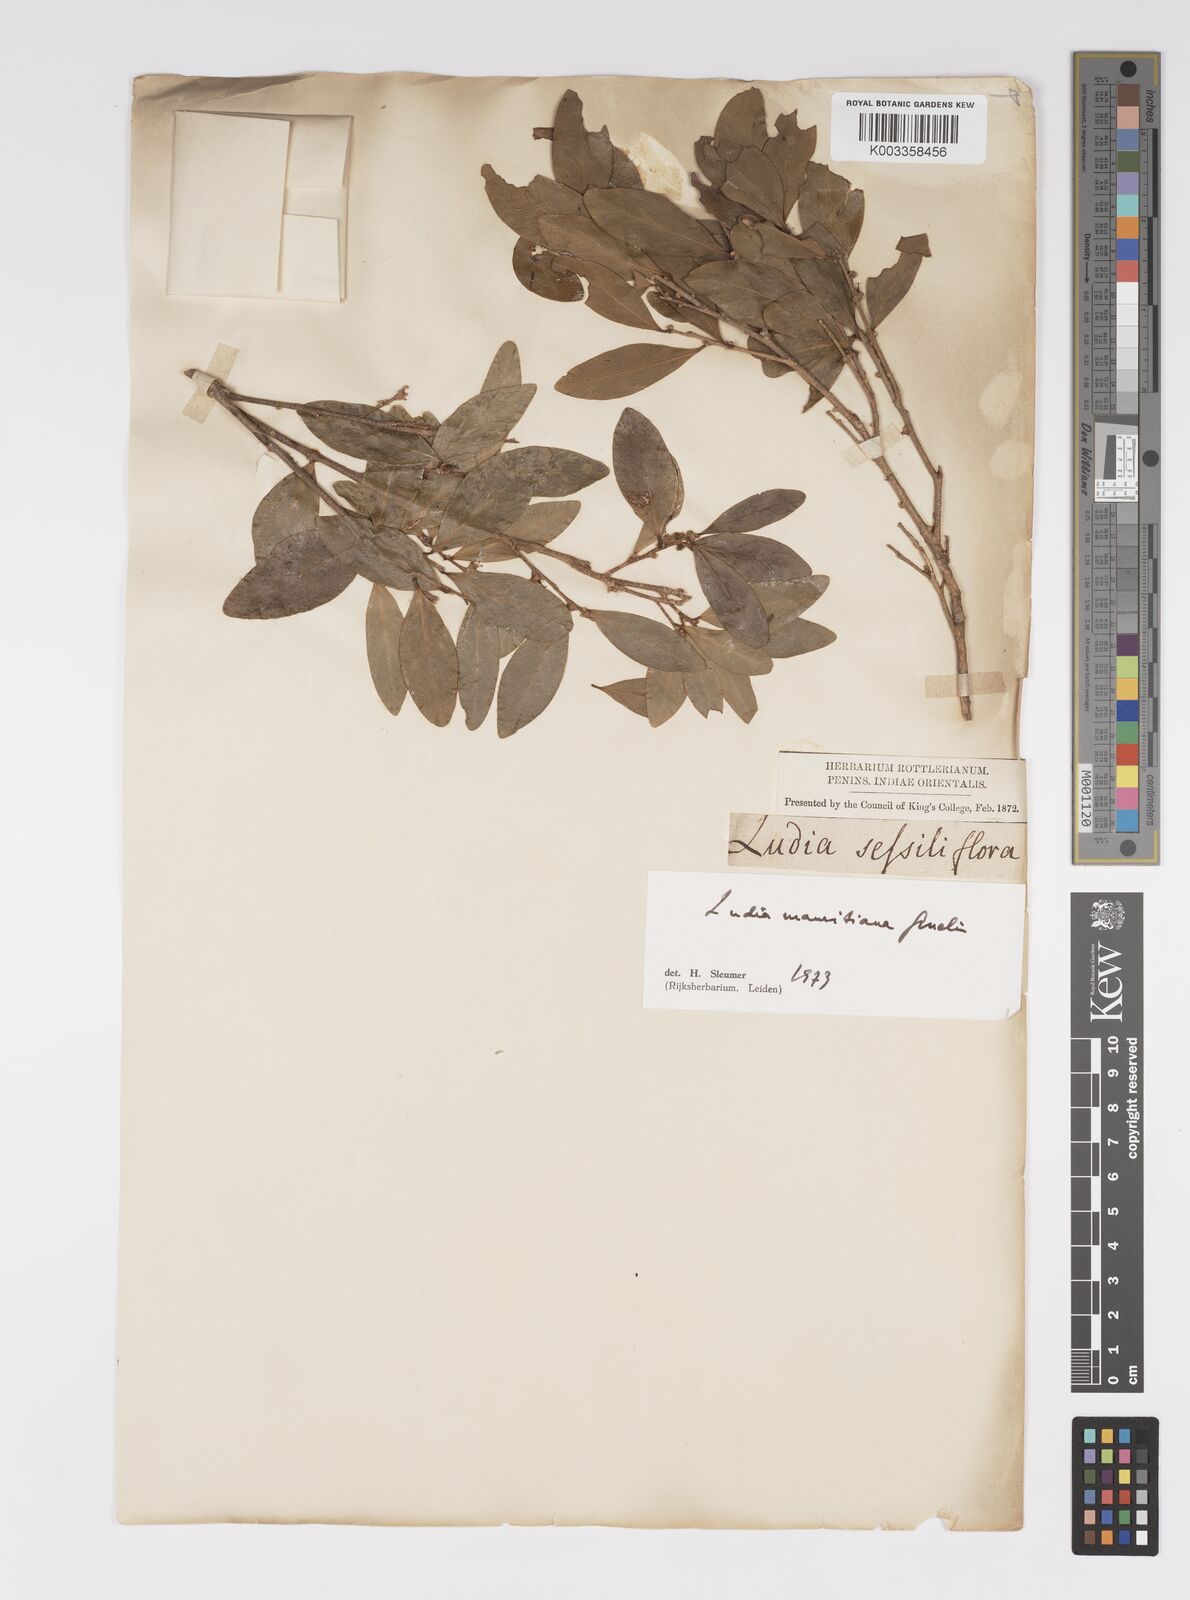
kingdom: Plantae
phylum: Tracheophyta
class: Magnoliopsida
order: Malpighiales
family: Salicaceae
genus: Ludia
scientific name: Ludia mauritiana
